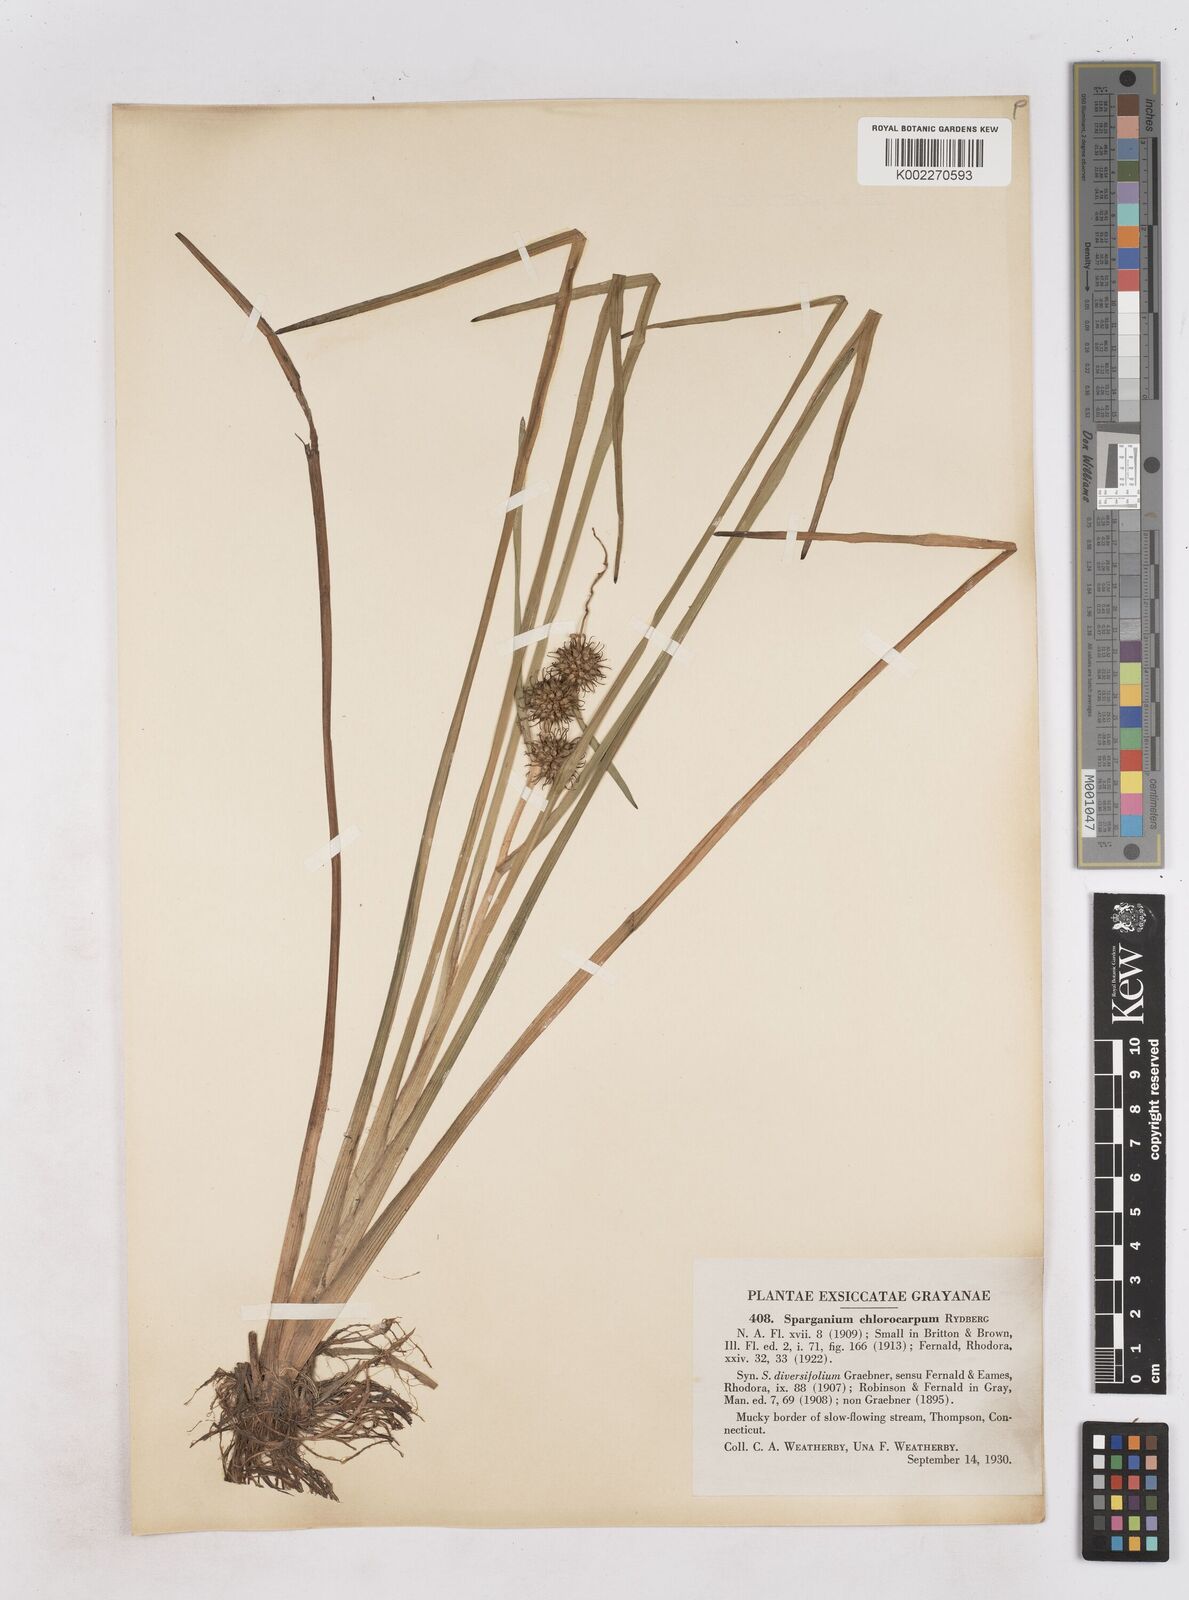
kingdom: Plantae
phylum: Tracheophyta
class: Liliopsida
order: Poales
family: Typhaceae
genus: Sparganium
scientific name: Sparganium emersum
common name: Unbranched bur-reed
